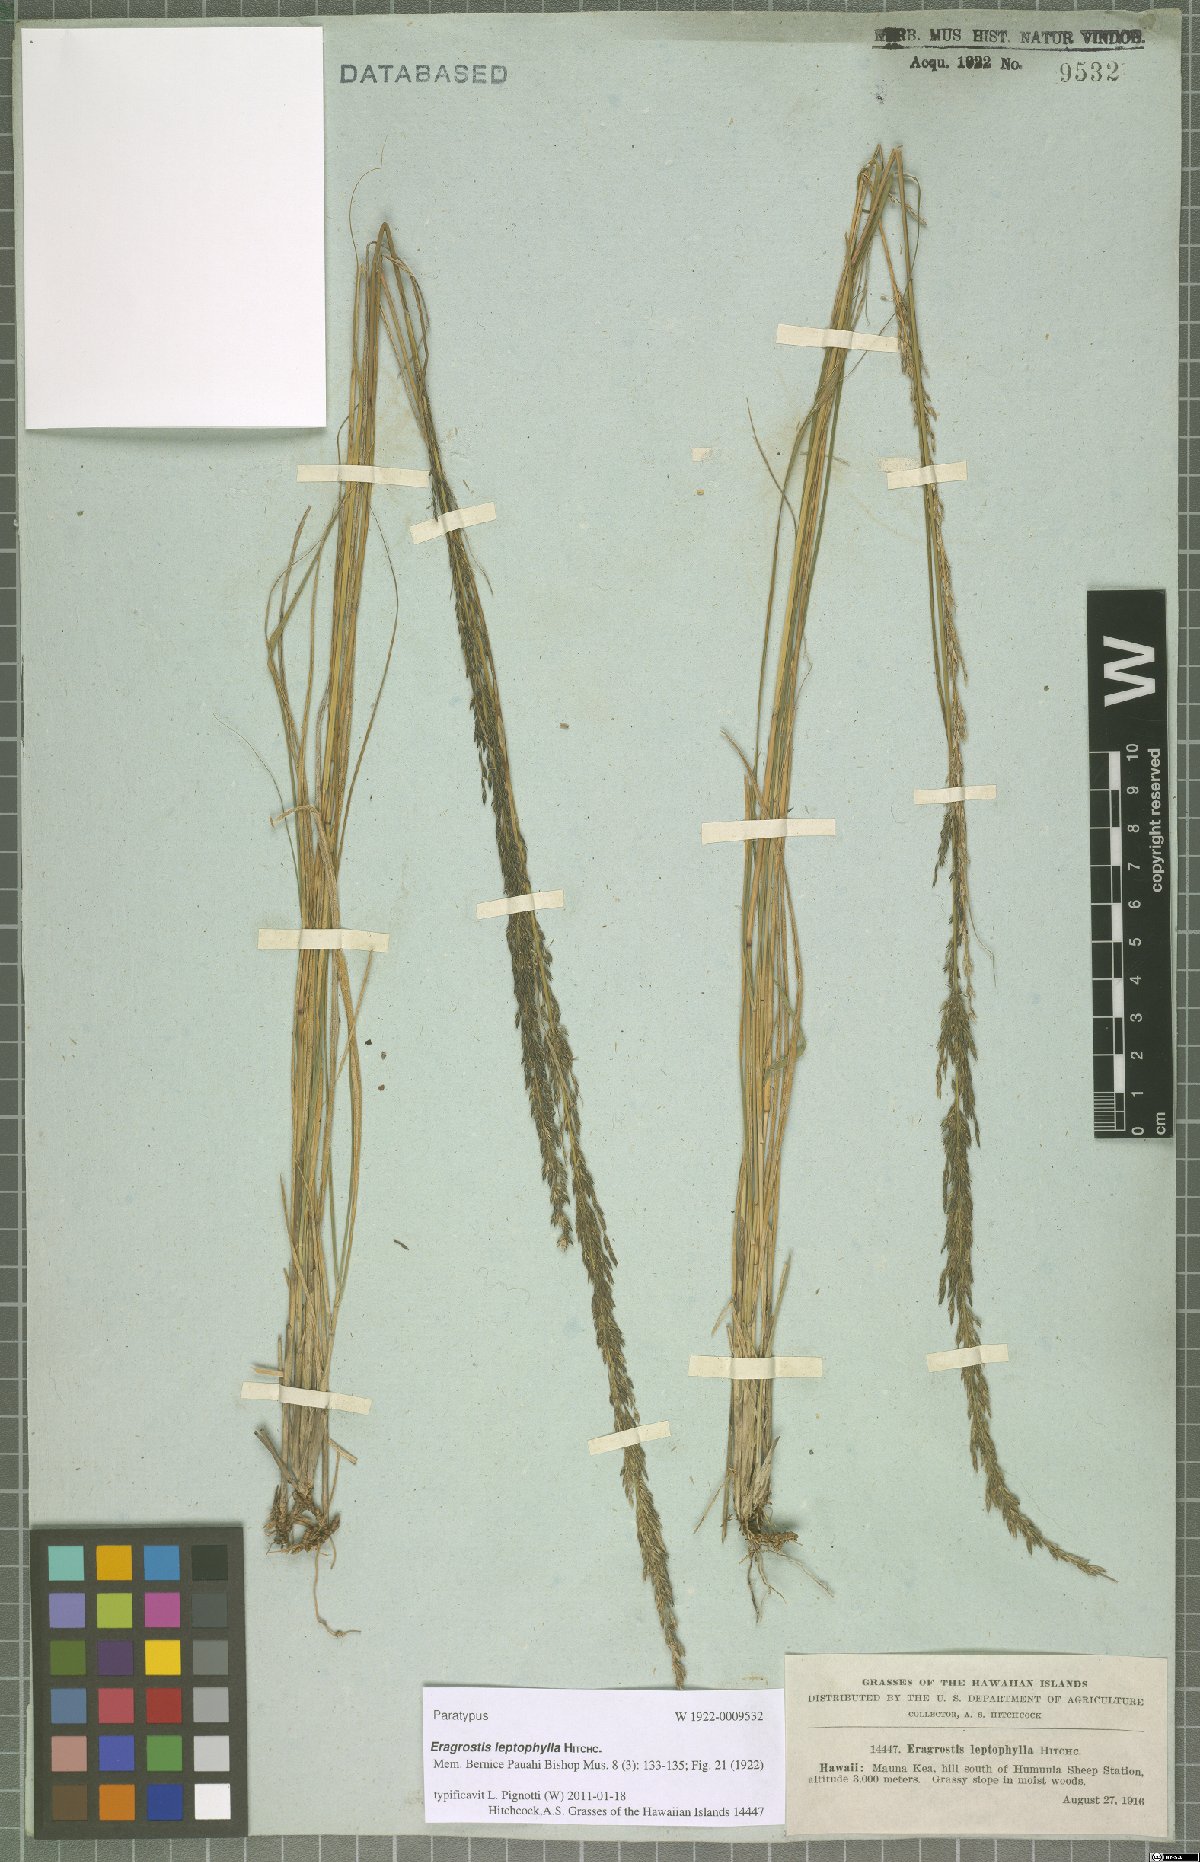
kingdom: Plantae
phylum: Tracheophyta
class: Liliopsida
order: Poales
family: Poaceae
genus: Eragrostis
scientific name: Eragrostis leptophylla
